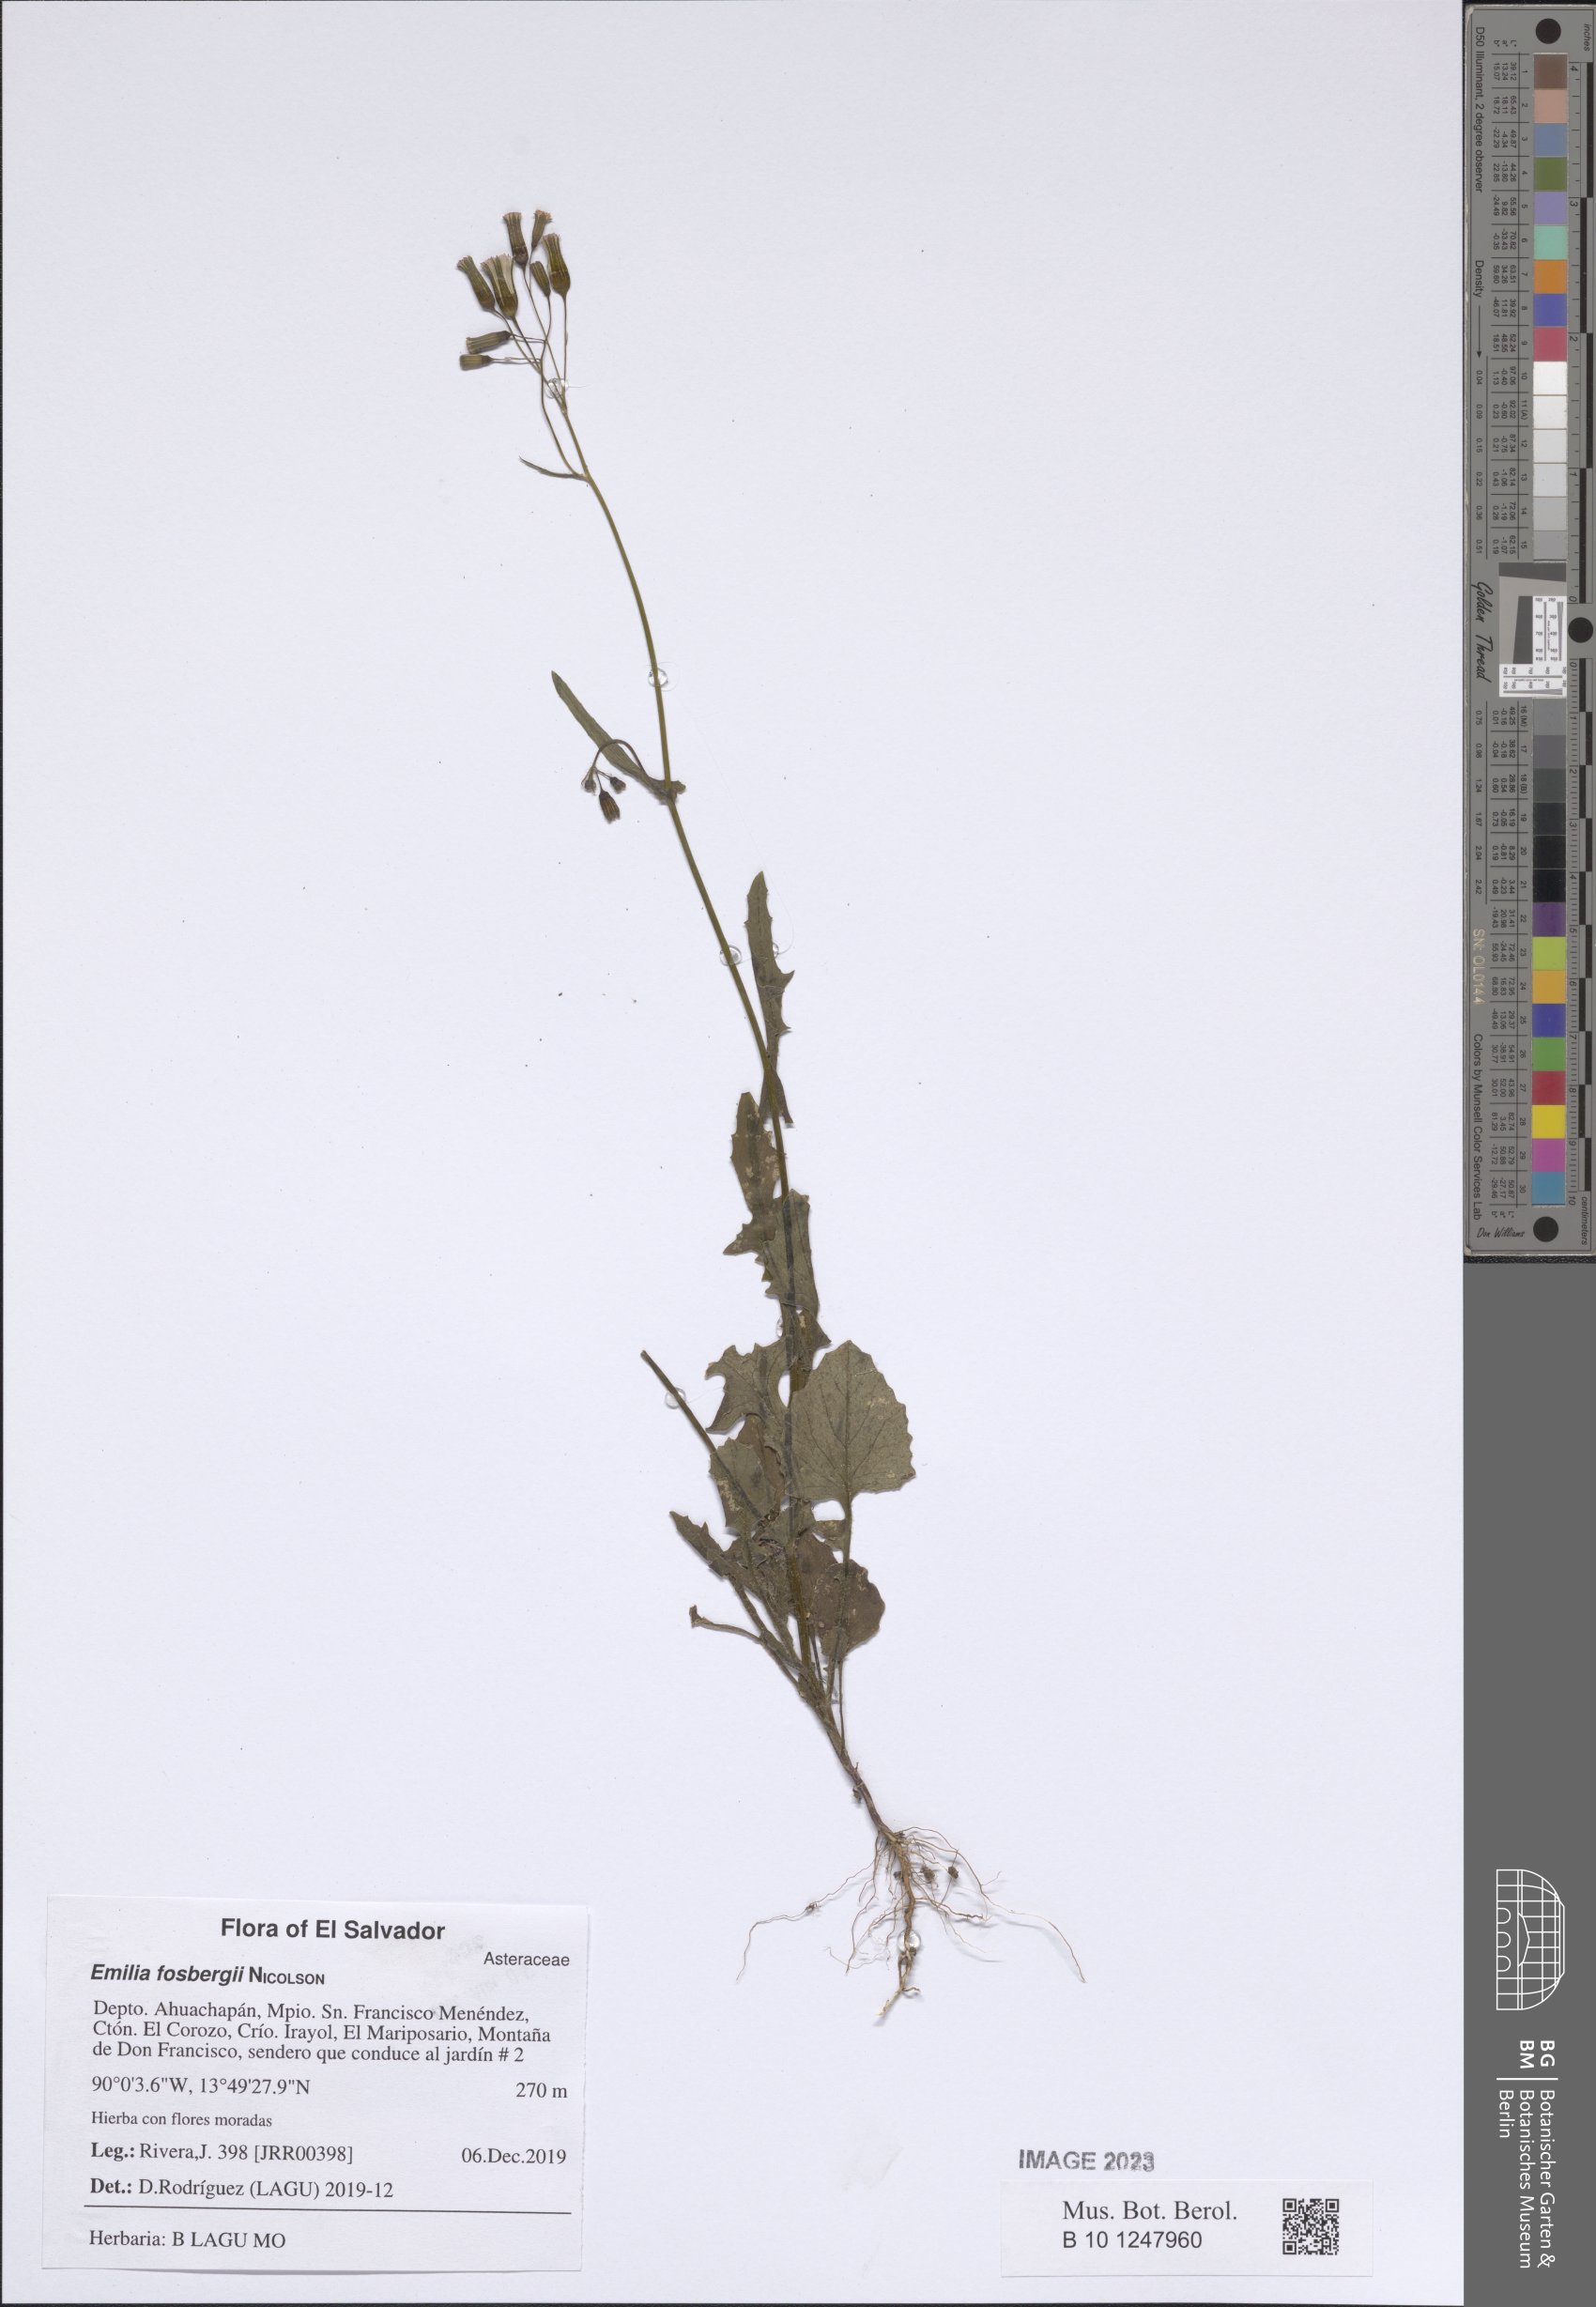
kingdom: Plantae
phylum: Tracheophyta
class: Magnoliopsida
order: Asterales
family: Asteraceae
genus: Emilia
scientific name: Emilia fosbergii
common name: Florida tasselflower
